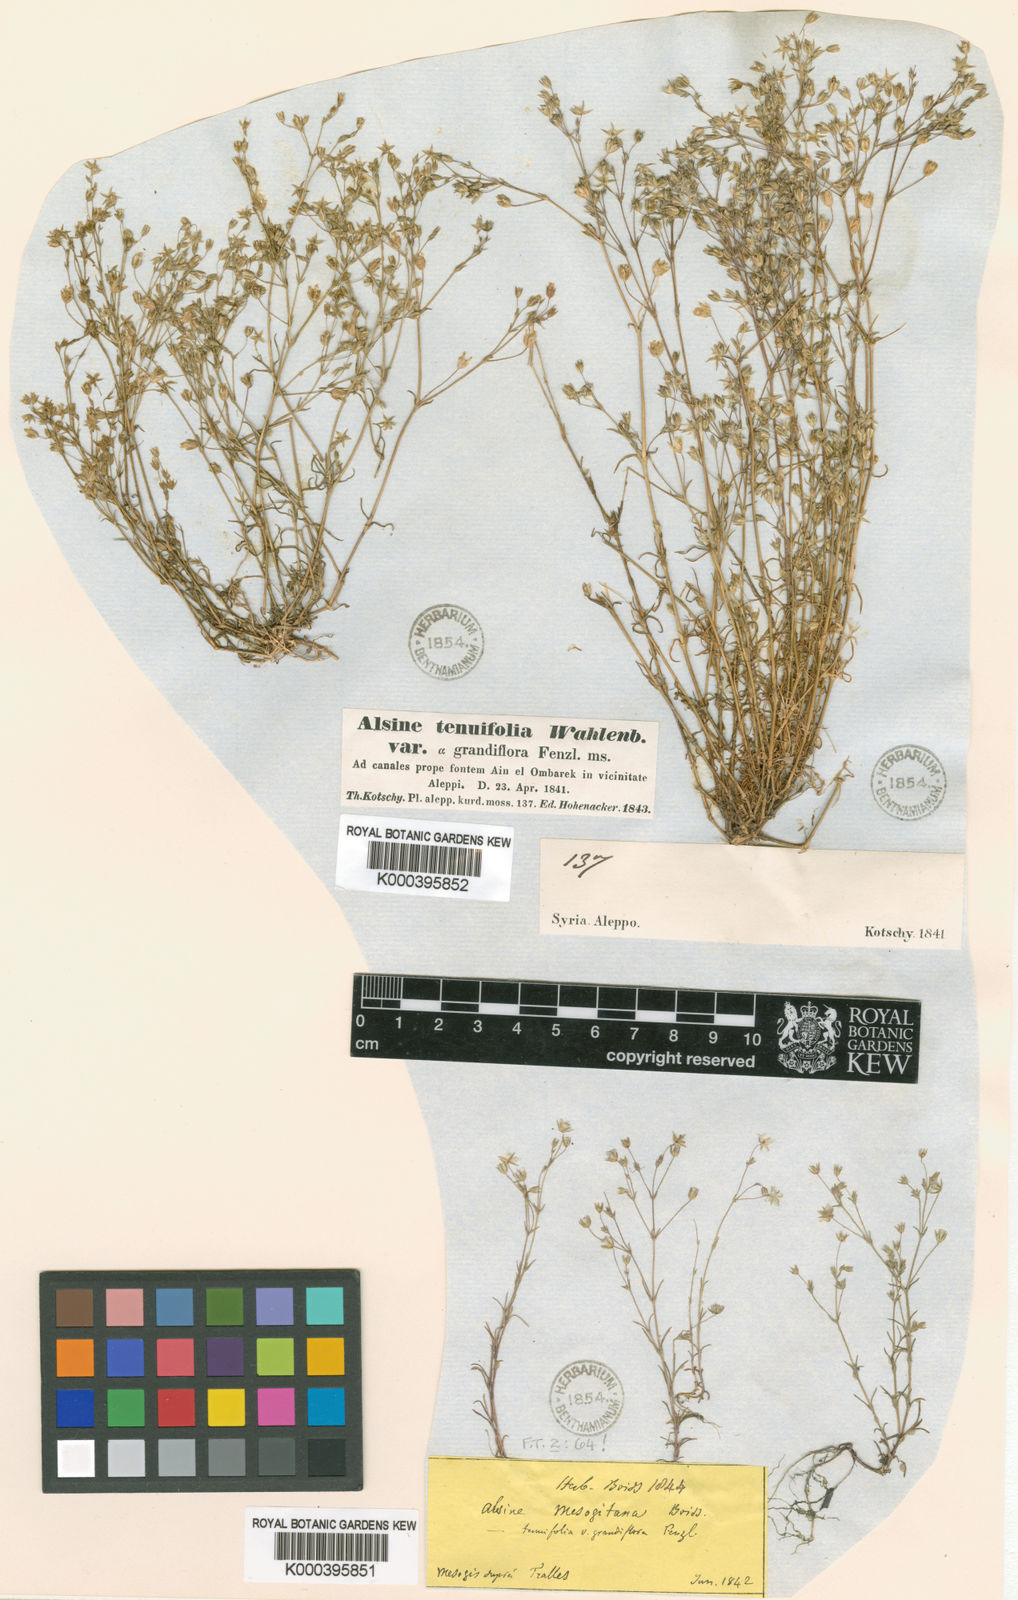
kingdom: Plantae
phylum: Tracheophyta
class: Magnoliopsida
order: Caryophyllales
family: Caryophyllaceae
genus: Sabulina
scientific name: Sabulina mesogitana
